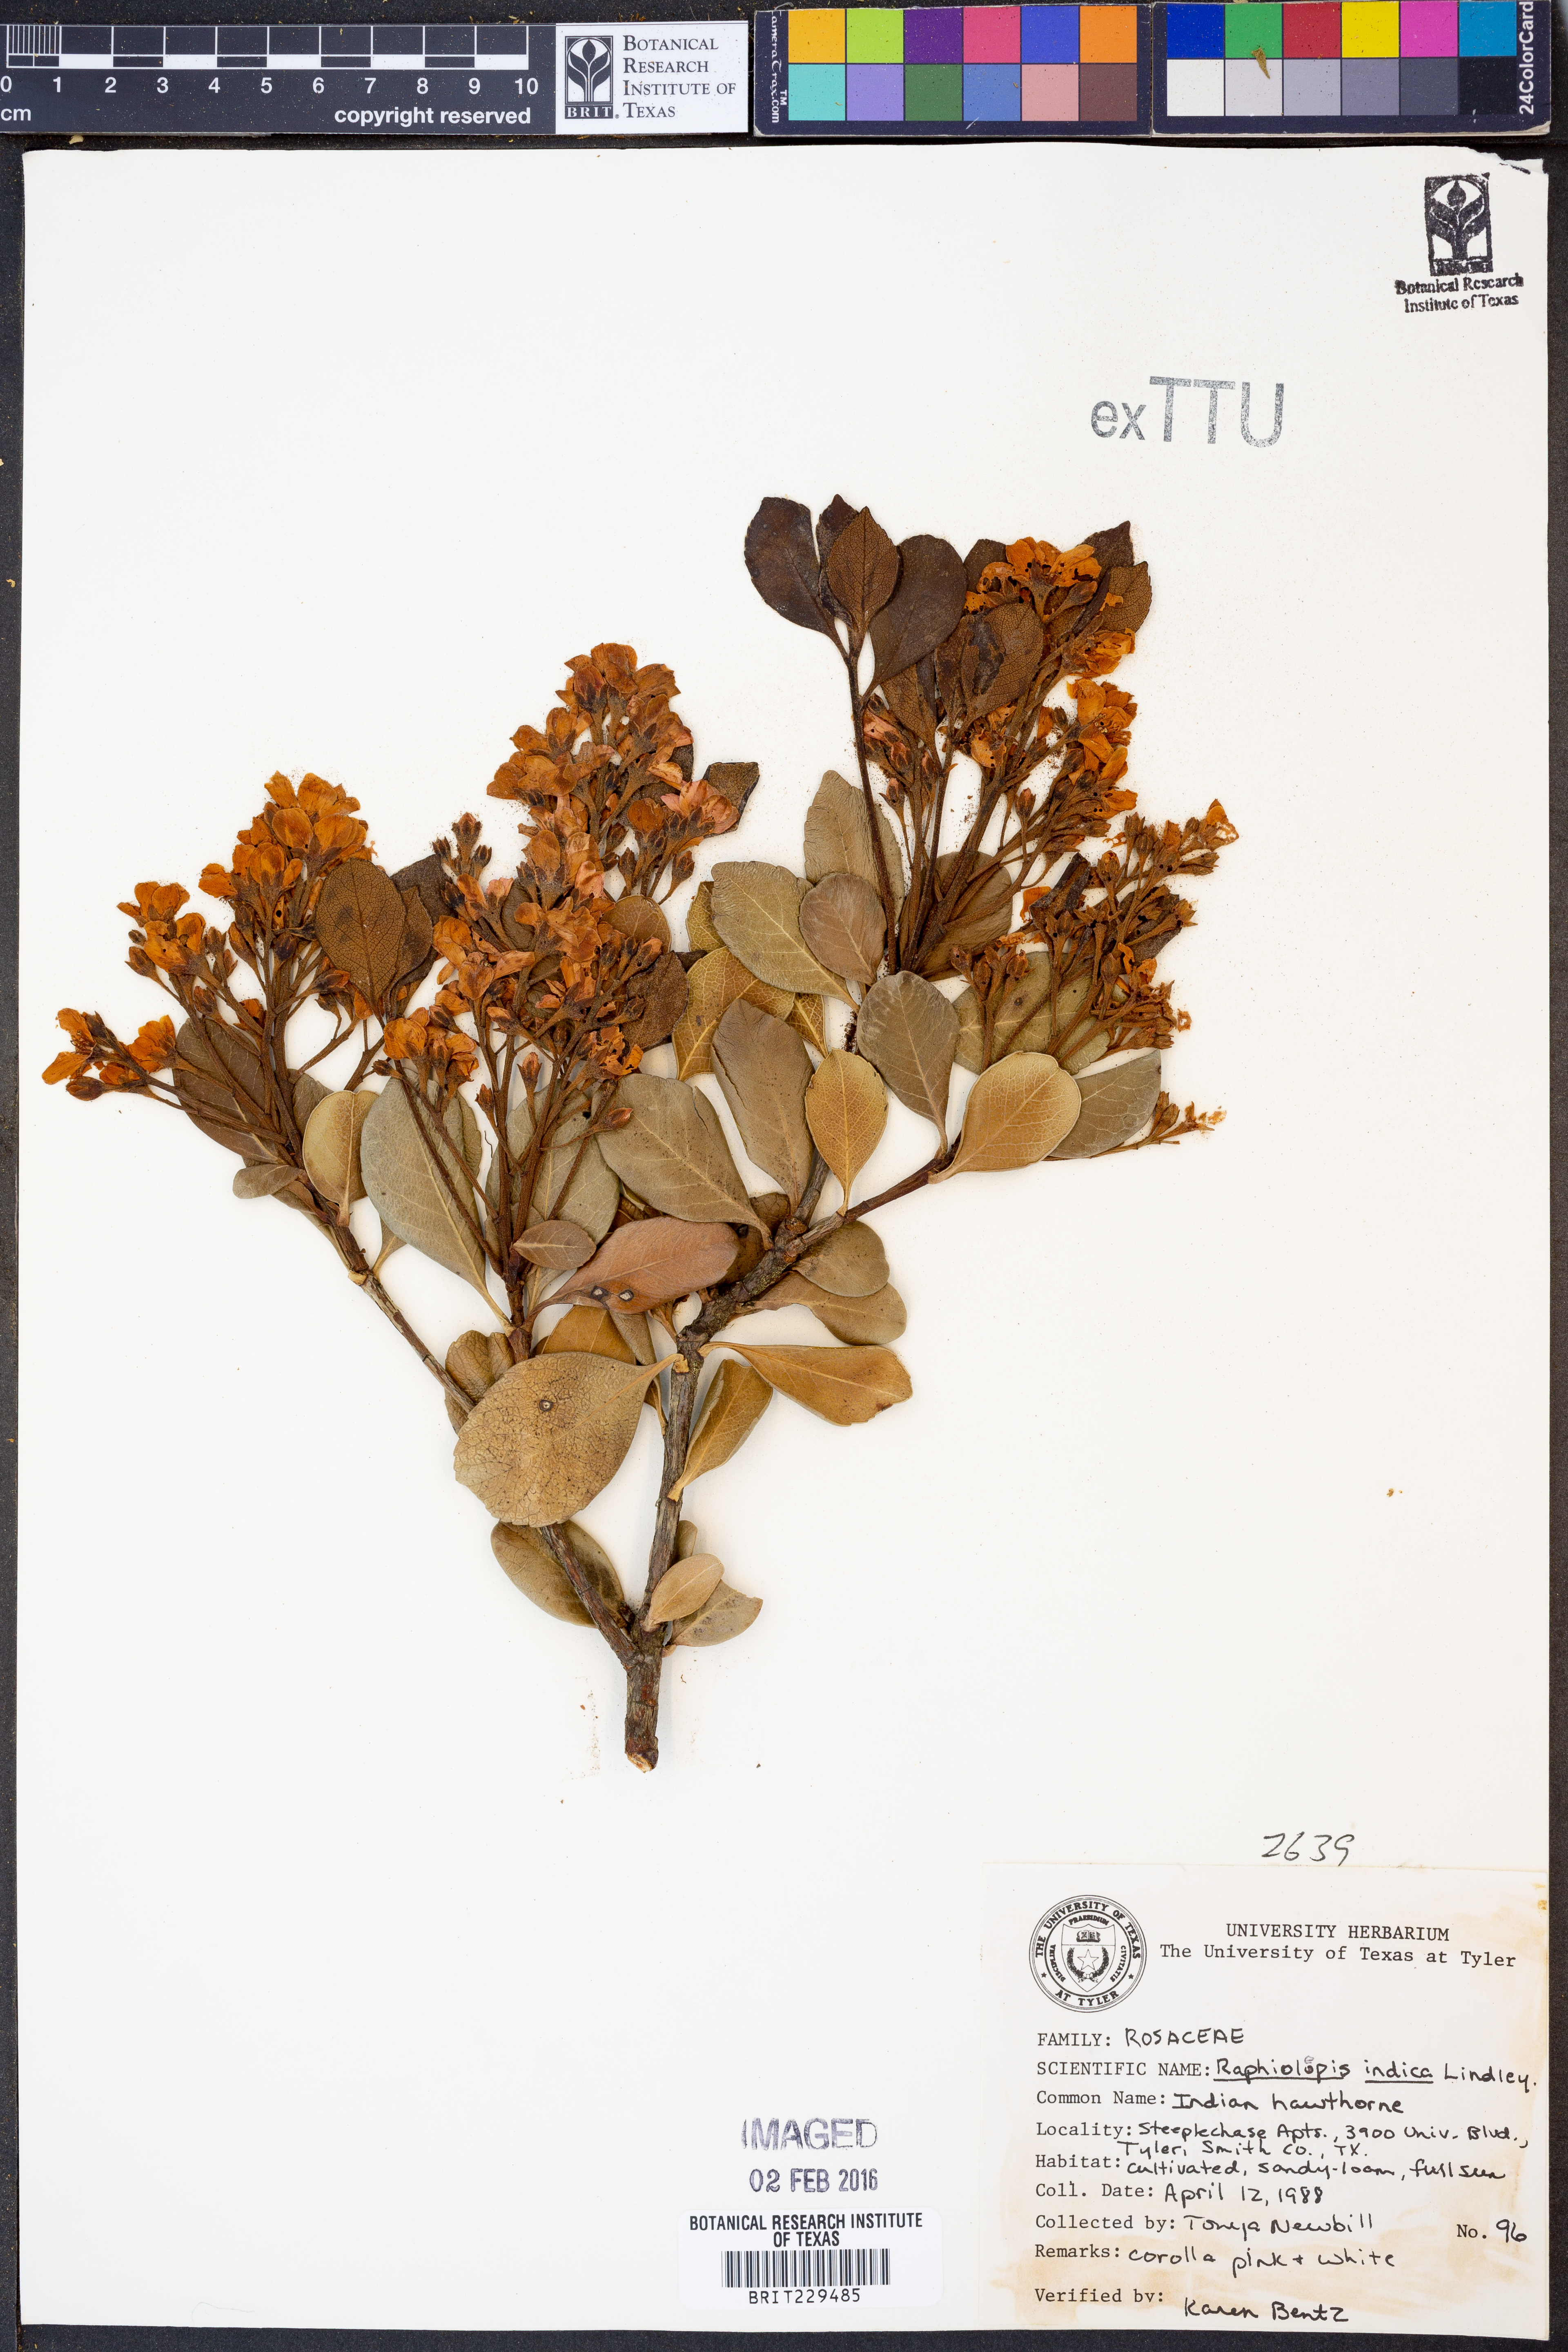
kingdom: Plantae
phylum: Tracheophyta
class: Magnoliopsida
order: Rosales
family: Rosaceae
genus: Rhaphiolepis
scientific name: Rhaphiolepis indica
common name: India-hawthorn
